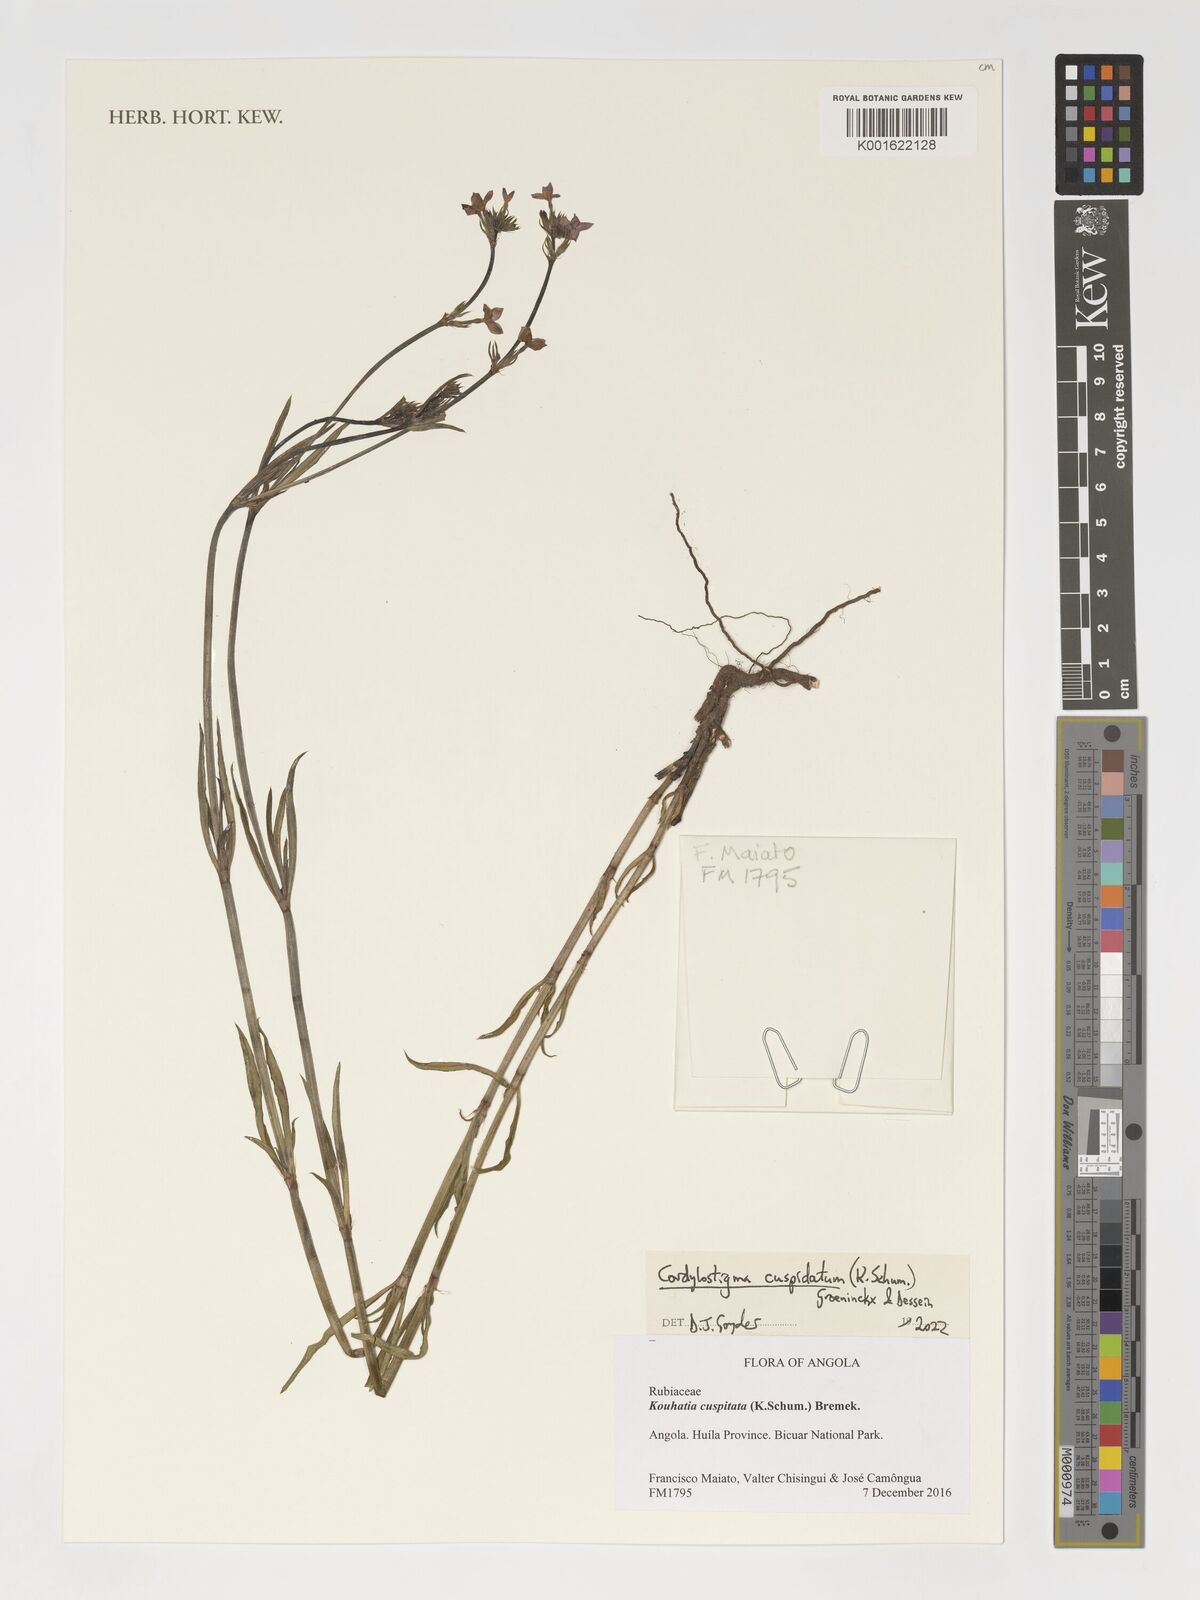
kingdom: Plantae
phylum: Tracheophyta
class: Magnoliopsida
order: Gentianales
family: Rubiaceae
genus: Cordylostigma
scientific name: Cordylostigma cuspidatum
